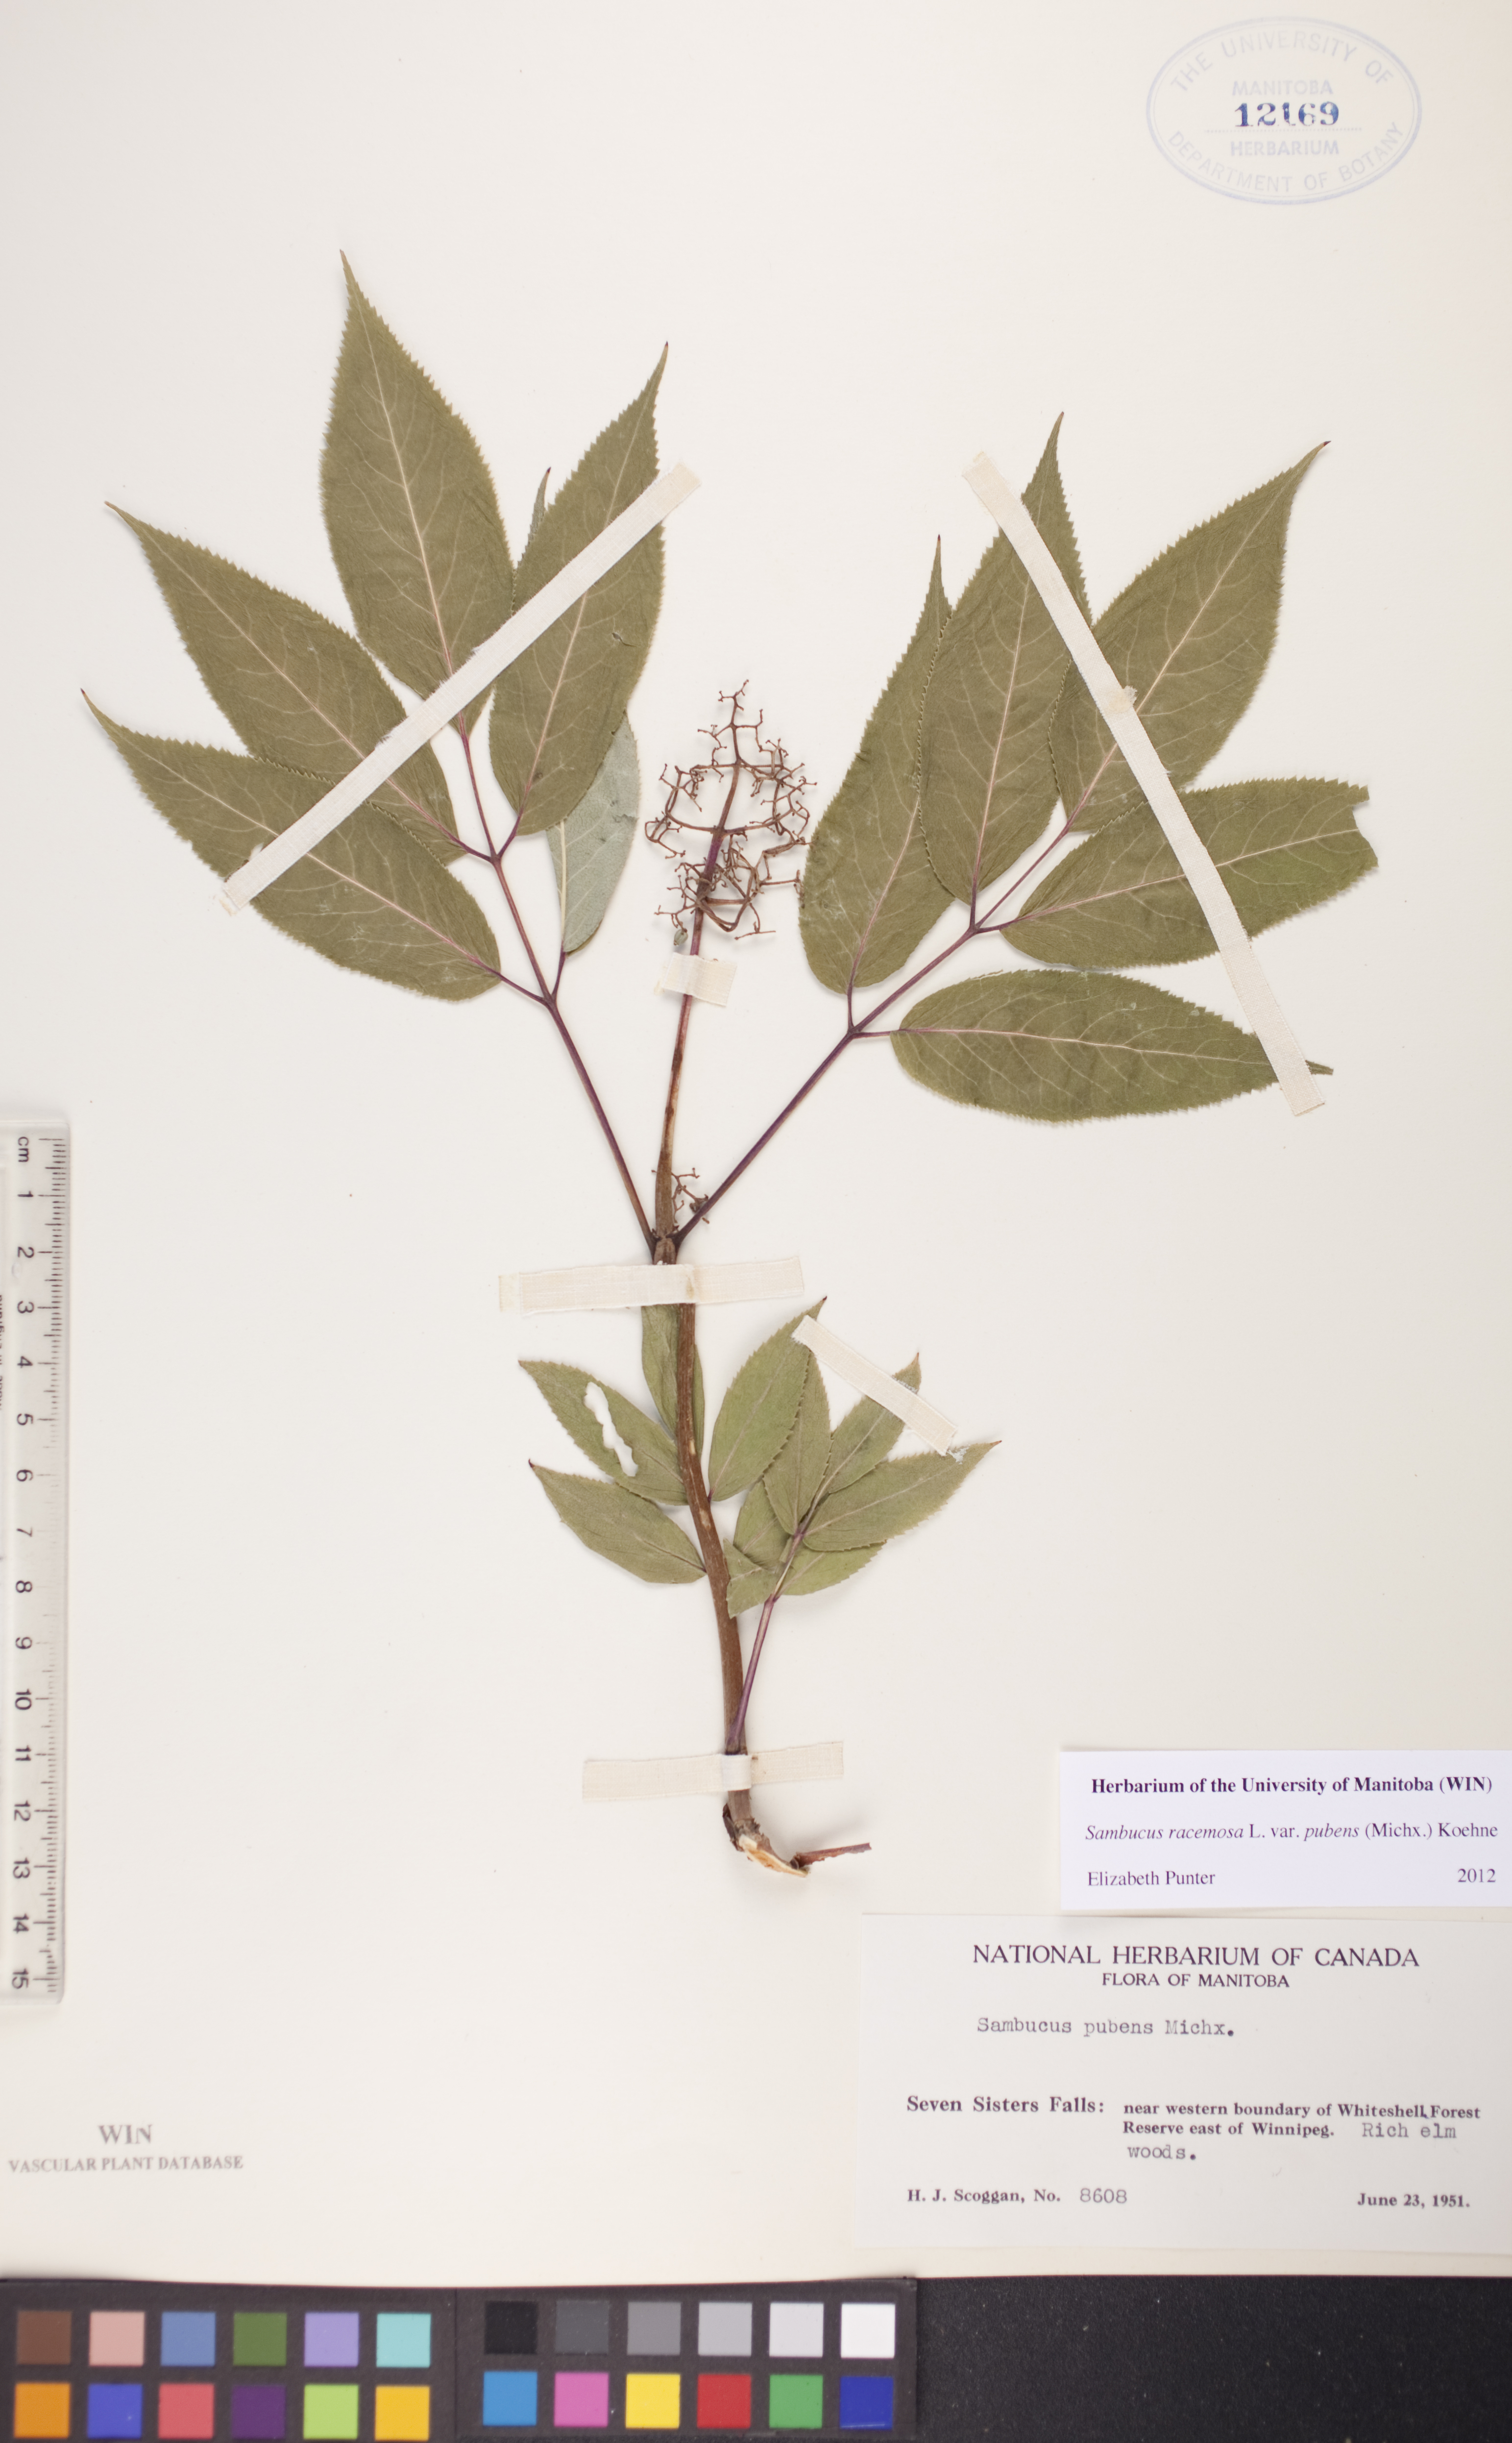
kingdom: Plantae
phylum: Tracheophyta
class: Magnoliopsida
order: Dipsacales
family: Viburnaceae
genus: Sambucus
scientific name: Sambucus racemosa
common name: Red-berried elder
